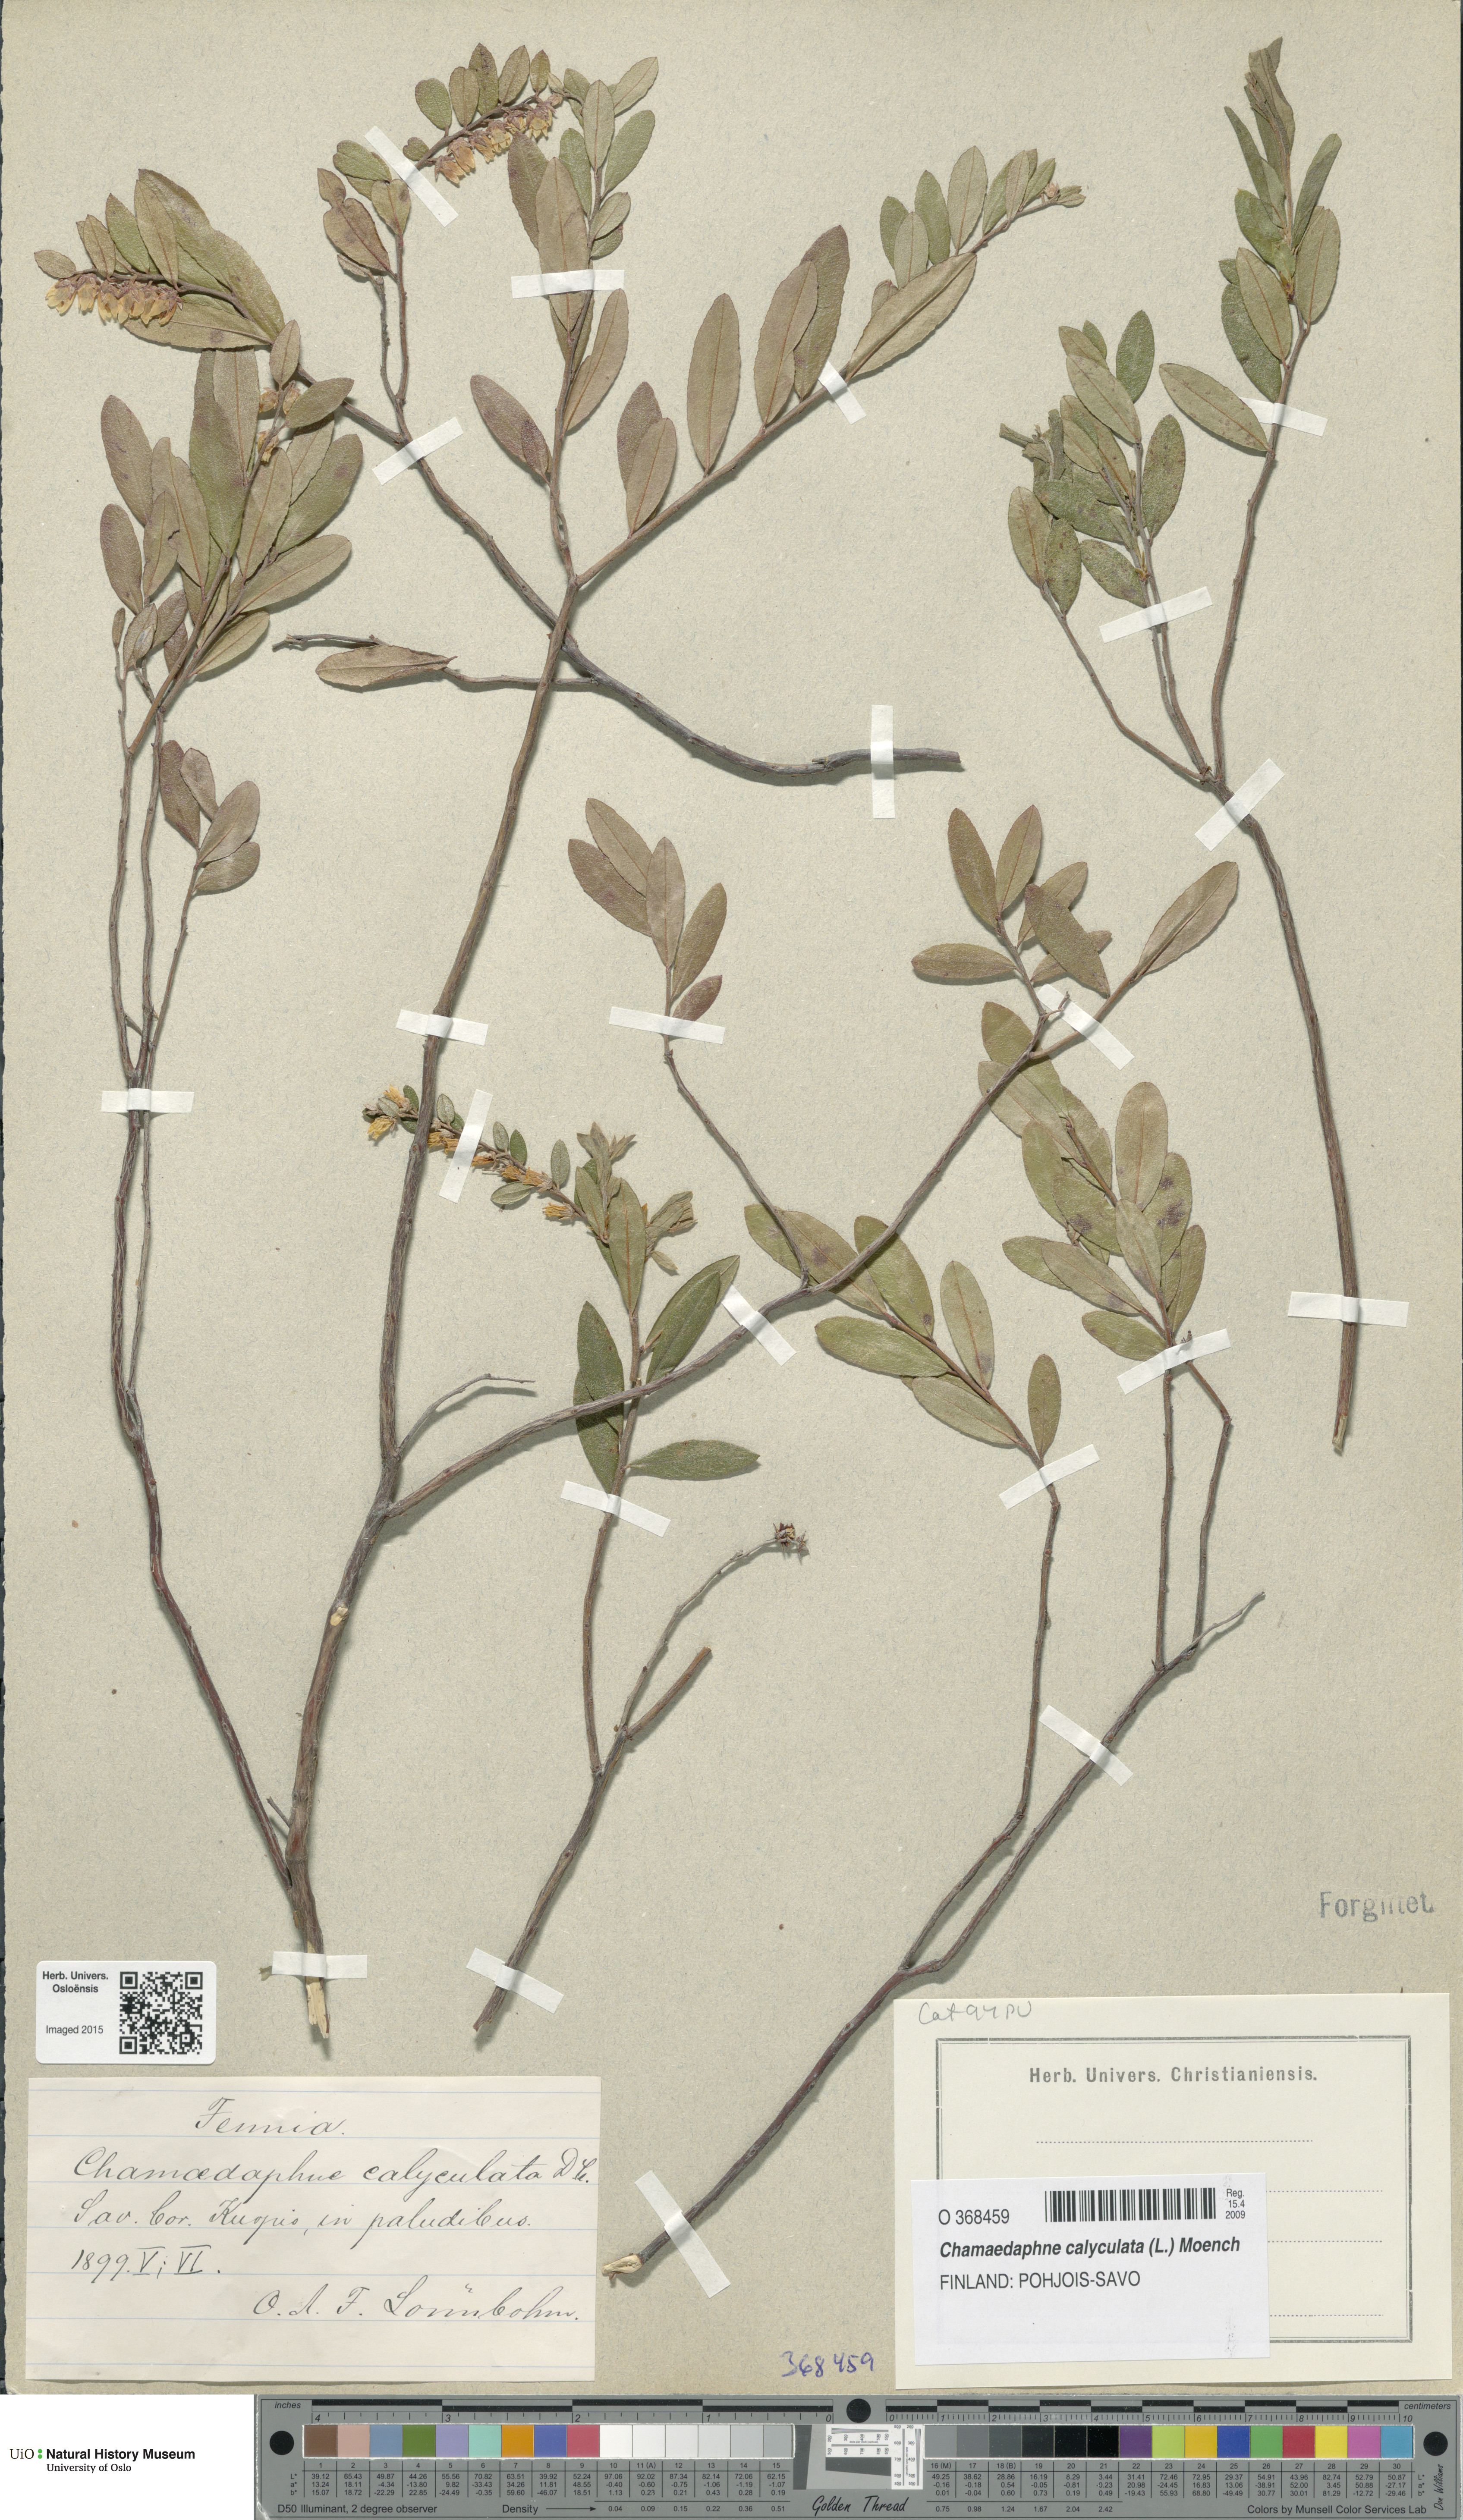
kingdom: Plantae
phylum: Tracheophyta
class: Magnoliopsida
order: Ericales
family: Ericaceae
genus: Chamaedaphne
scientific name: Chamaedaphne calyculata
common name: Leatherleaf
